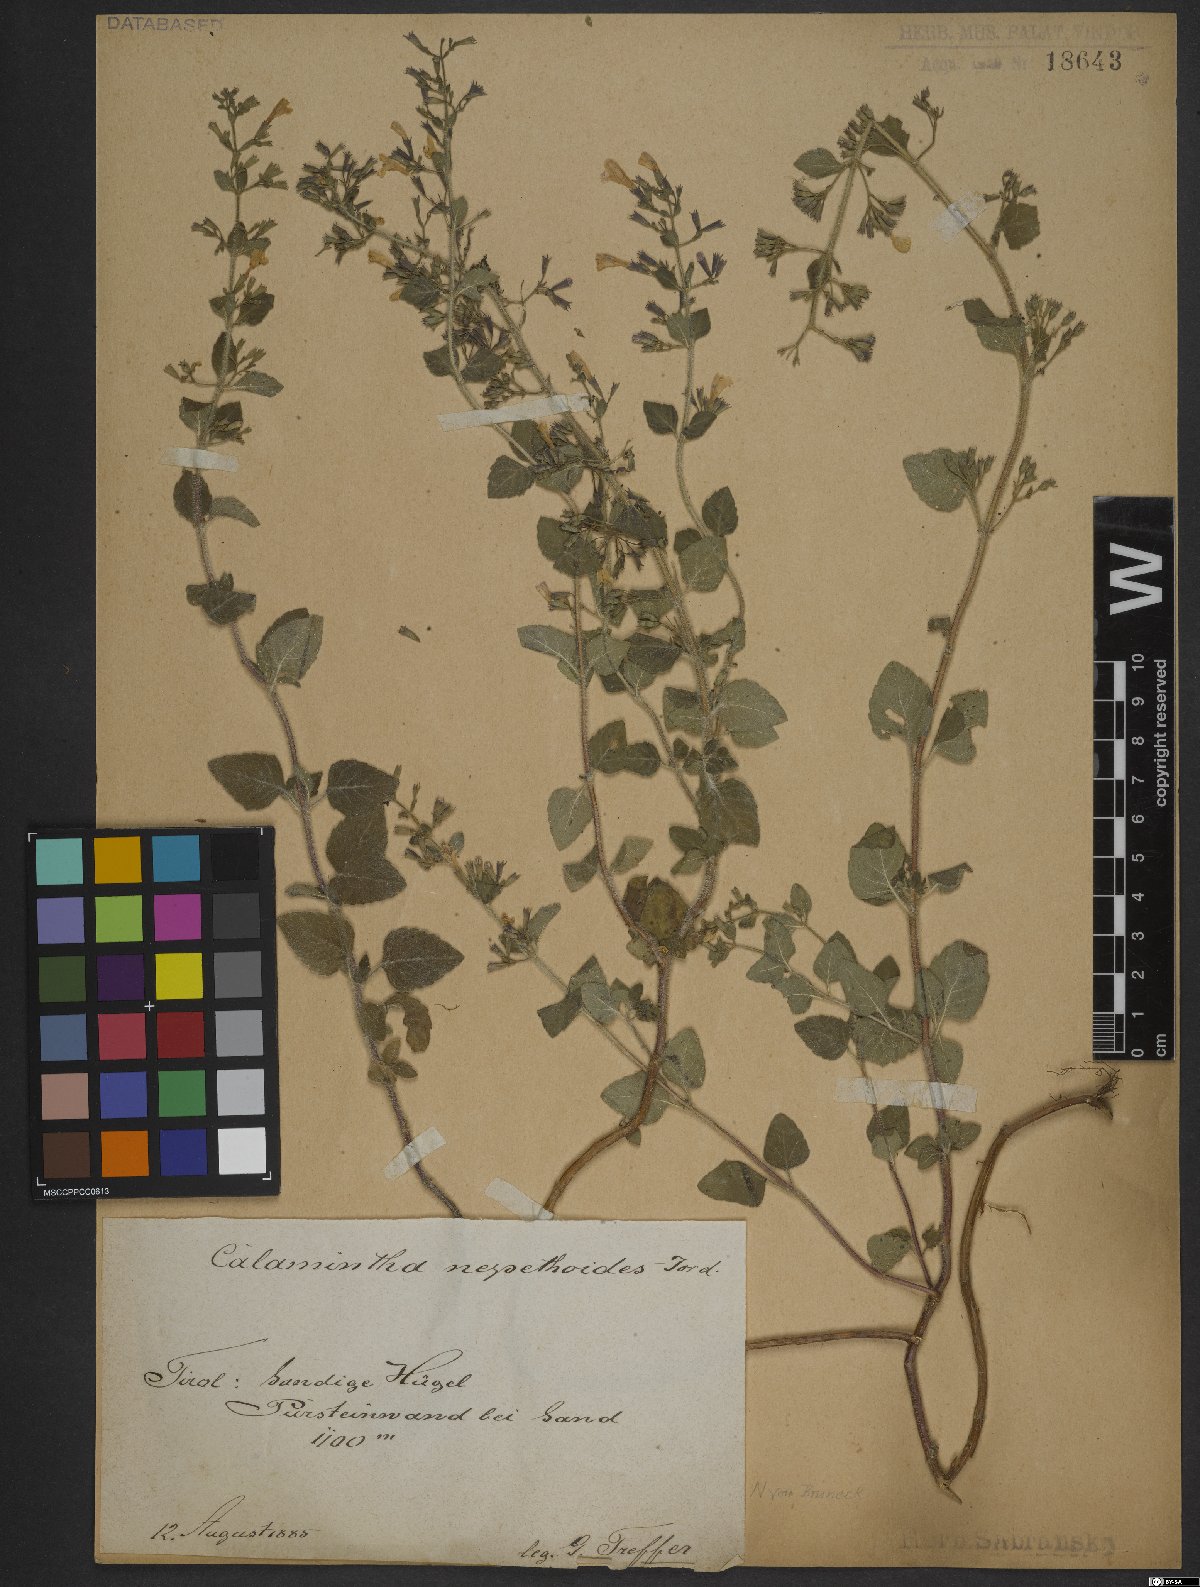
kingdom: Plantae
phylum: Tracheophyta
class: Magnoliopsida
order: Lamiales
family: Lamiaceae
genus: Clinopodium
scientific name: Clinopodium nepeta
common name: Lesser calamint
